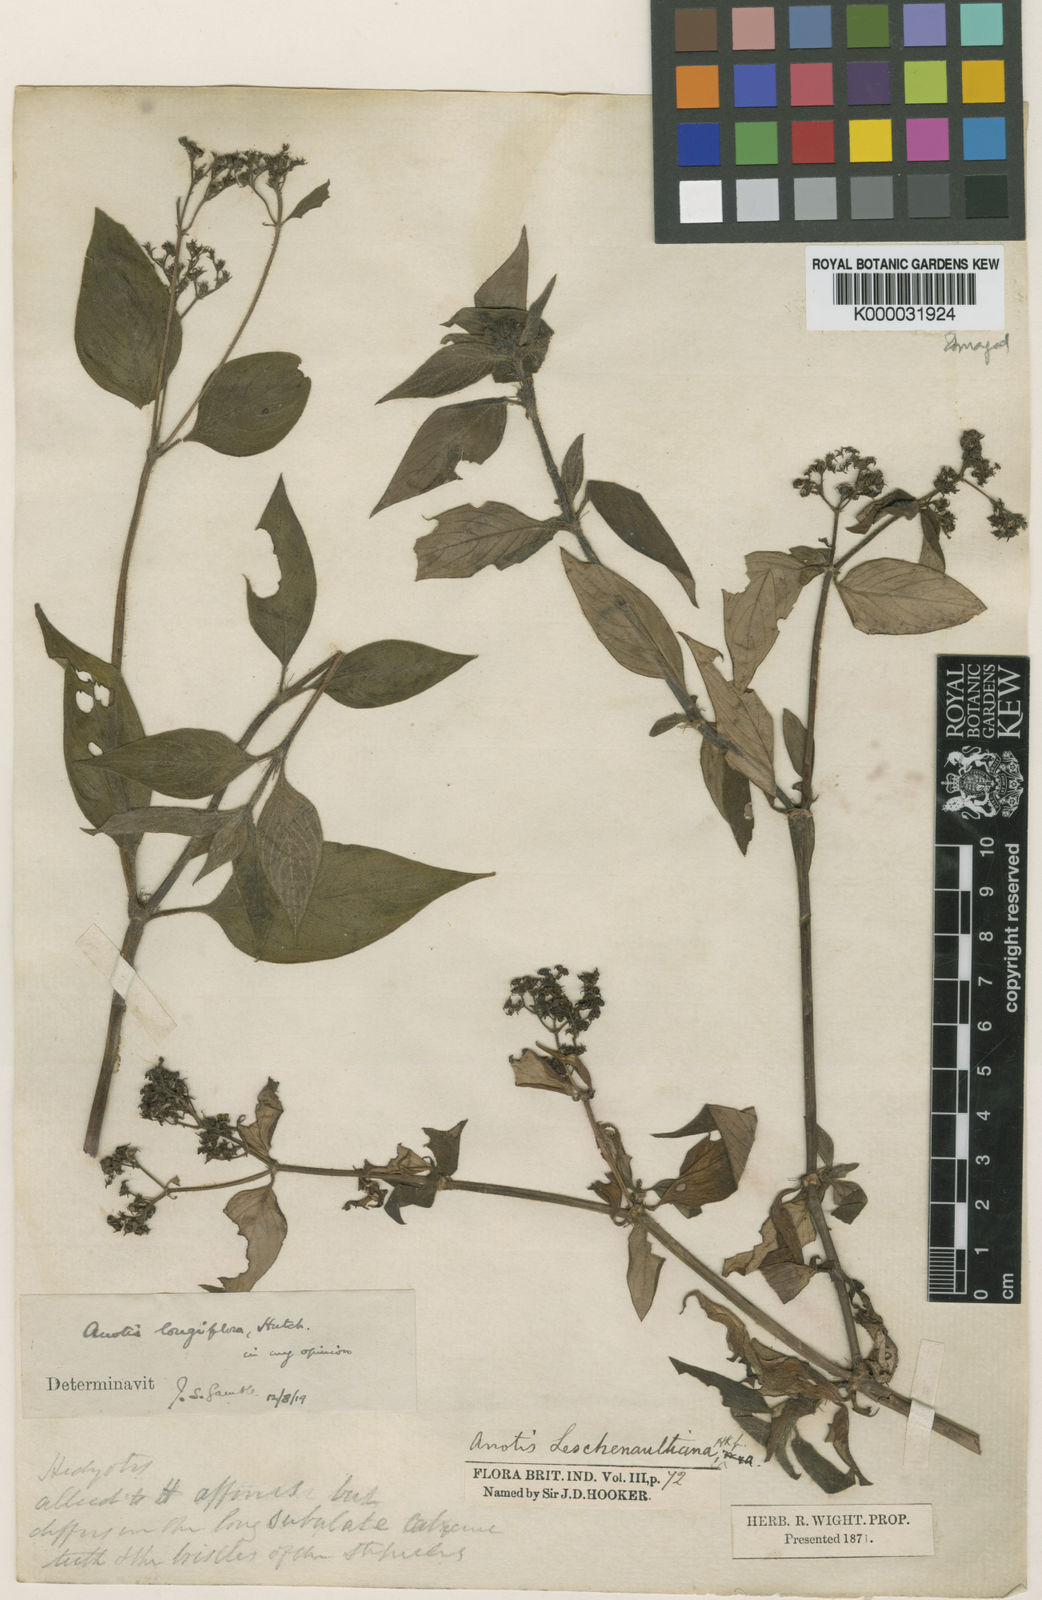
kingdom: Plantae
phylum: Tracheophyta
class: Magnoliopsida
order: Gentianales
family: Rubiaceae
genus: Neanotis
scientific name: Neanotis longiflora
